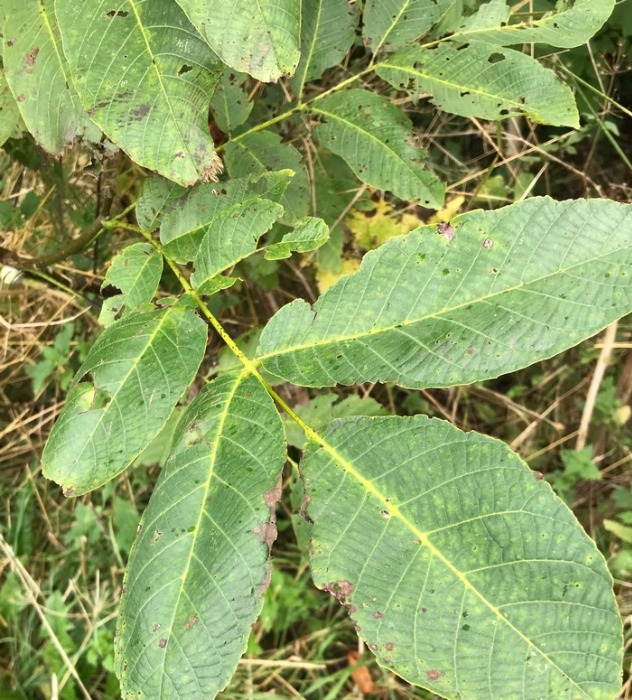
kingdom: Plantae
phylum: Tracheophyta
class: Magnoliopsida
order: Fagales
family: Juglandaceae
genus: Juglans
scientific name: Juglans regia
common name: Almindelig valnød
